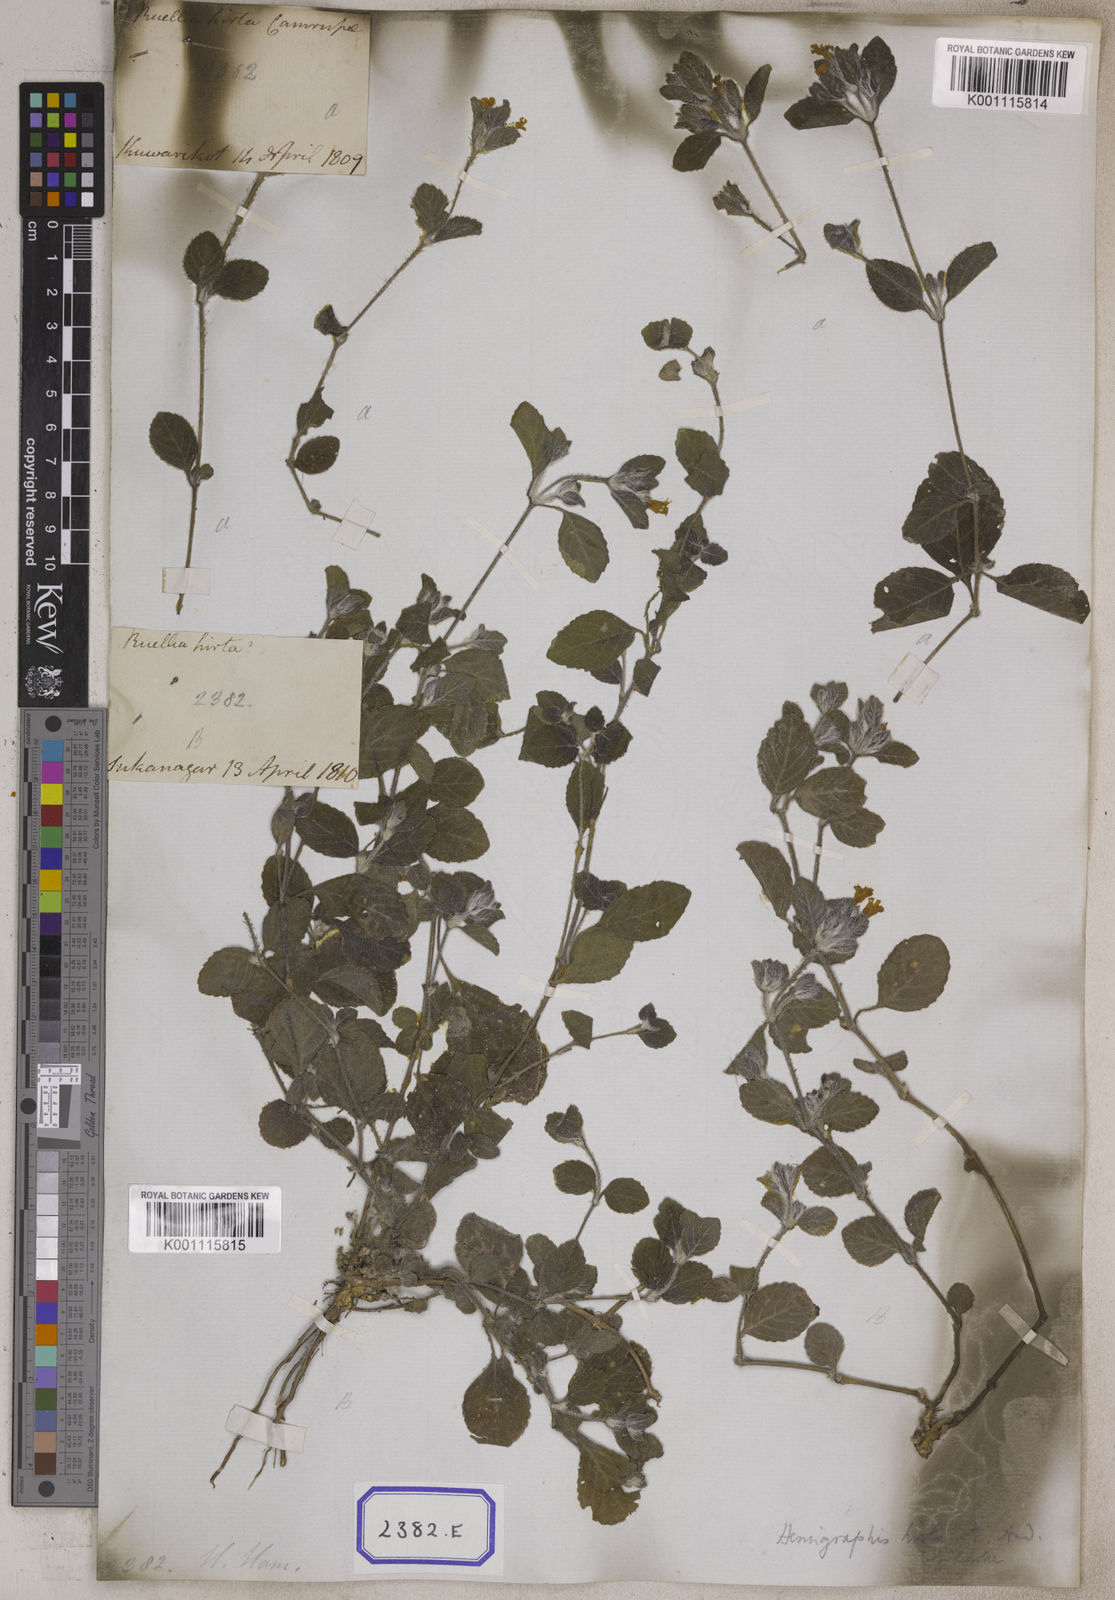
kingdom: Plantae
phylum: Tracheophyta
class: Magnoliopsida
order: Lamiales
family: Acanthaceae
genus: Strobilanthes
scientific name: Strobilanthes hirta
